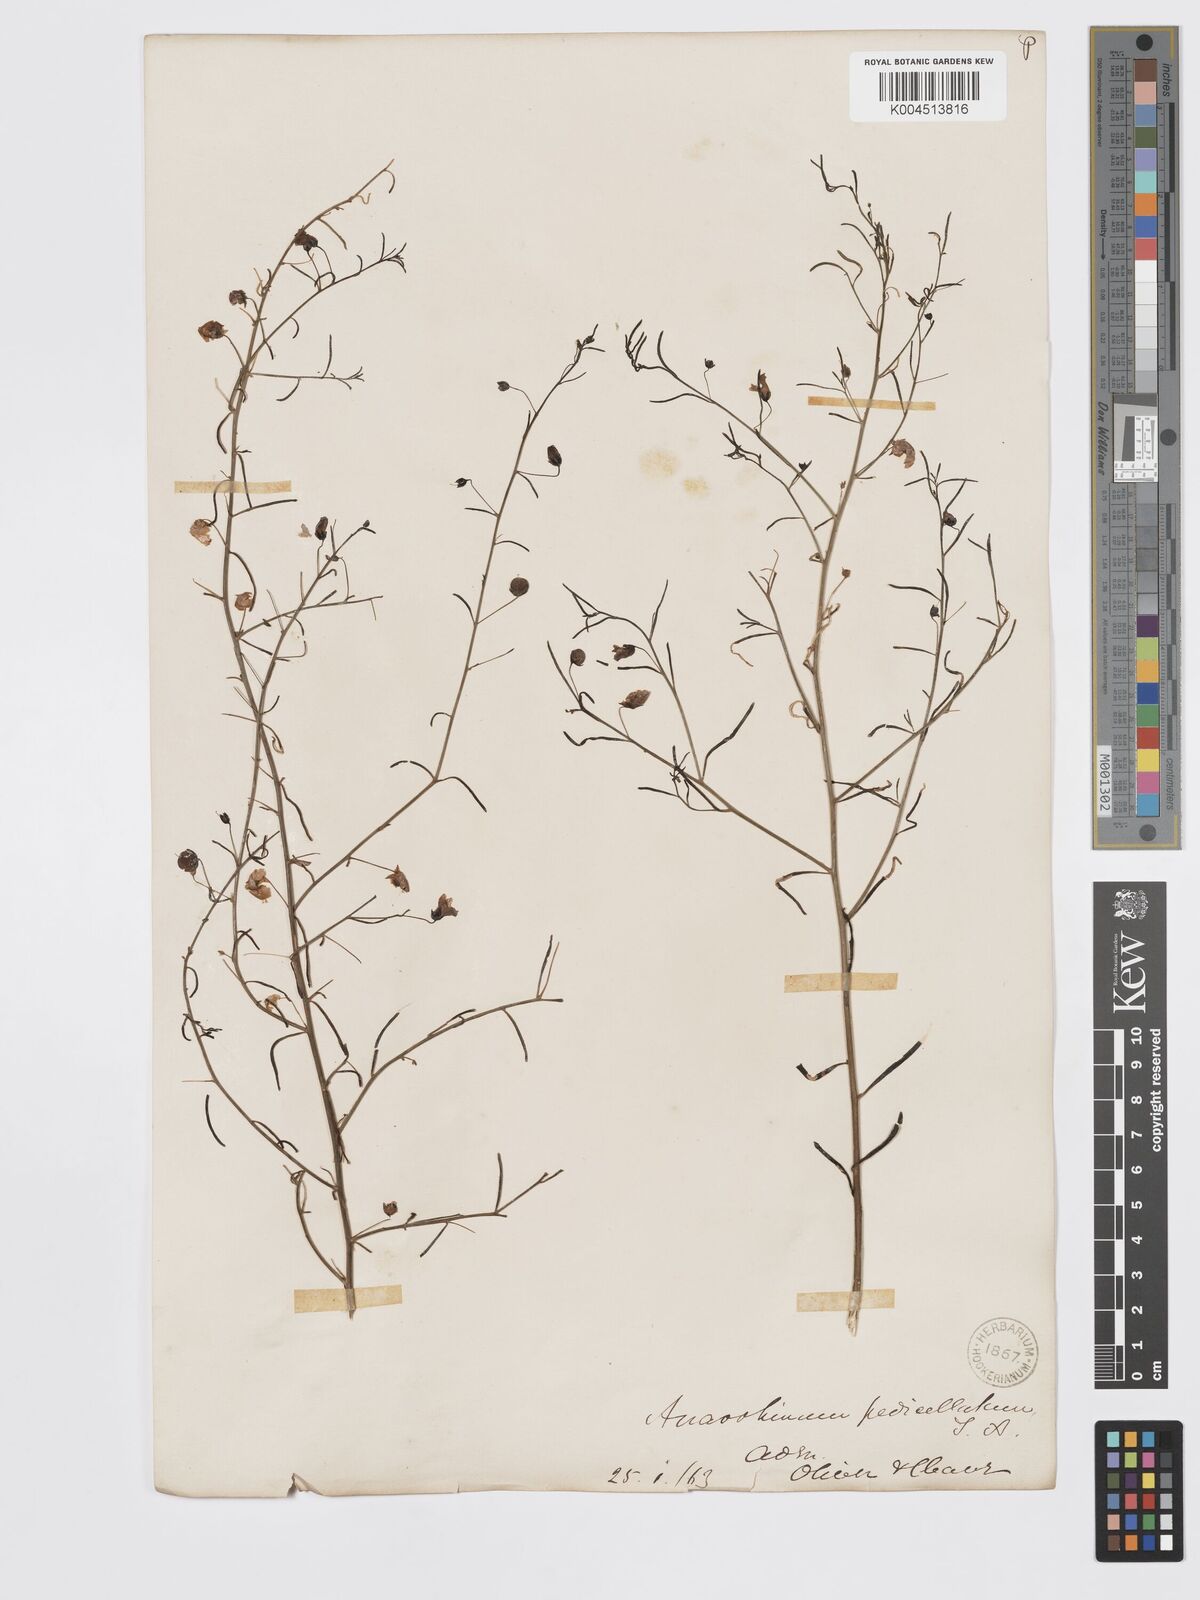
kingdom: Plantae
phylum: Tracheophyta
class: Magnoliopsida
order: Lamiales
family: Plantaginaceae
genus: Schweinfurthia
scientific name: Schweinfurthia pedicellata
